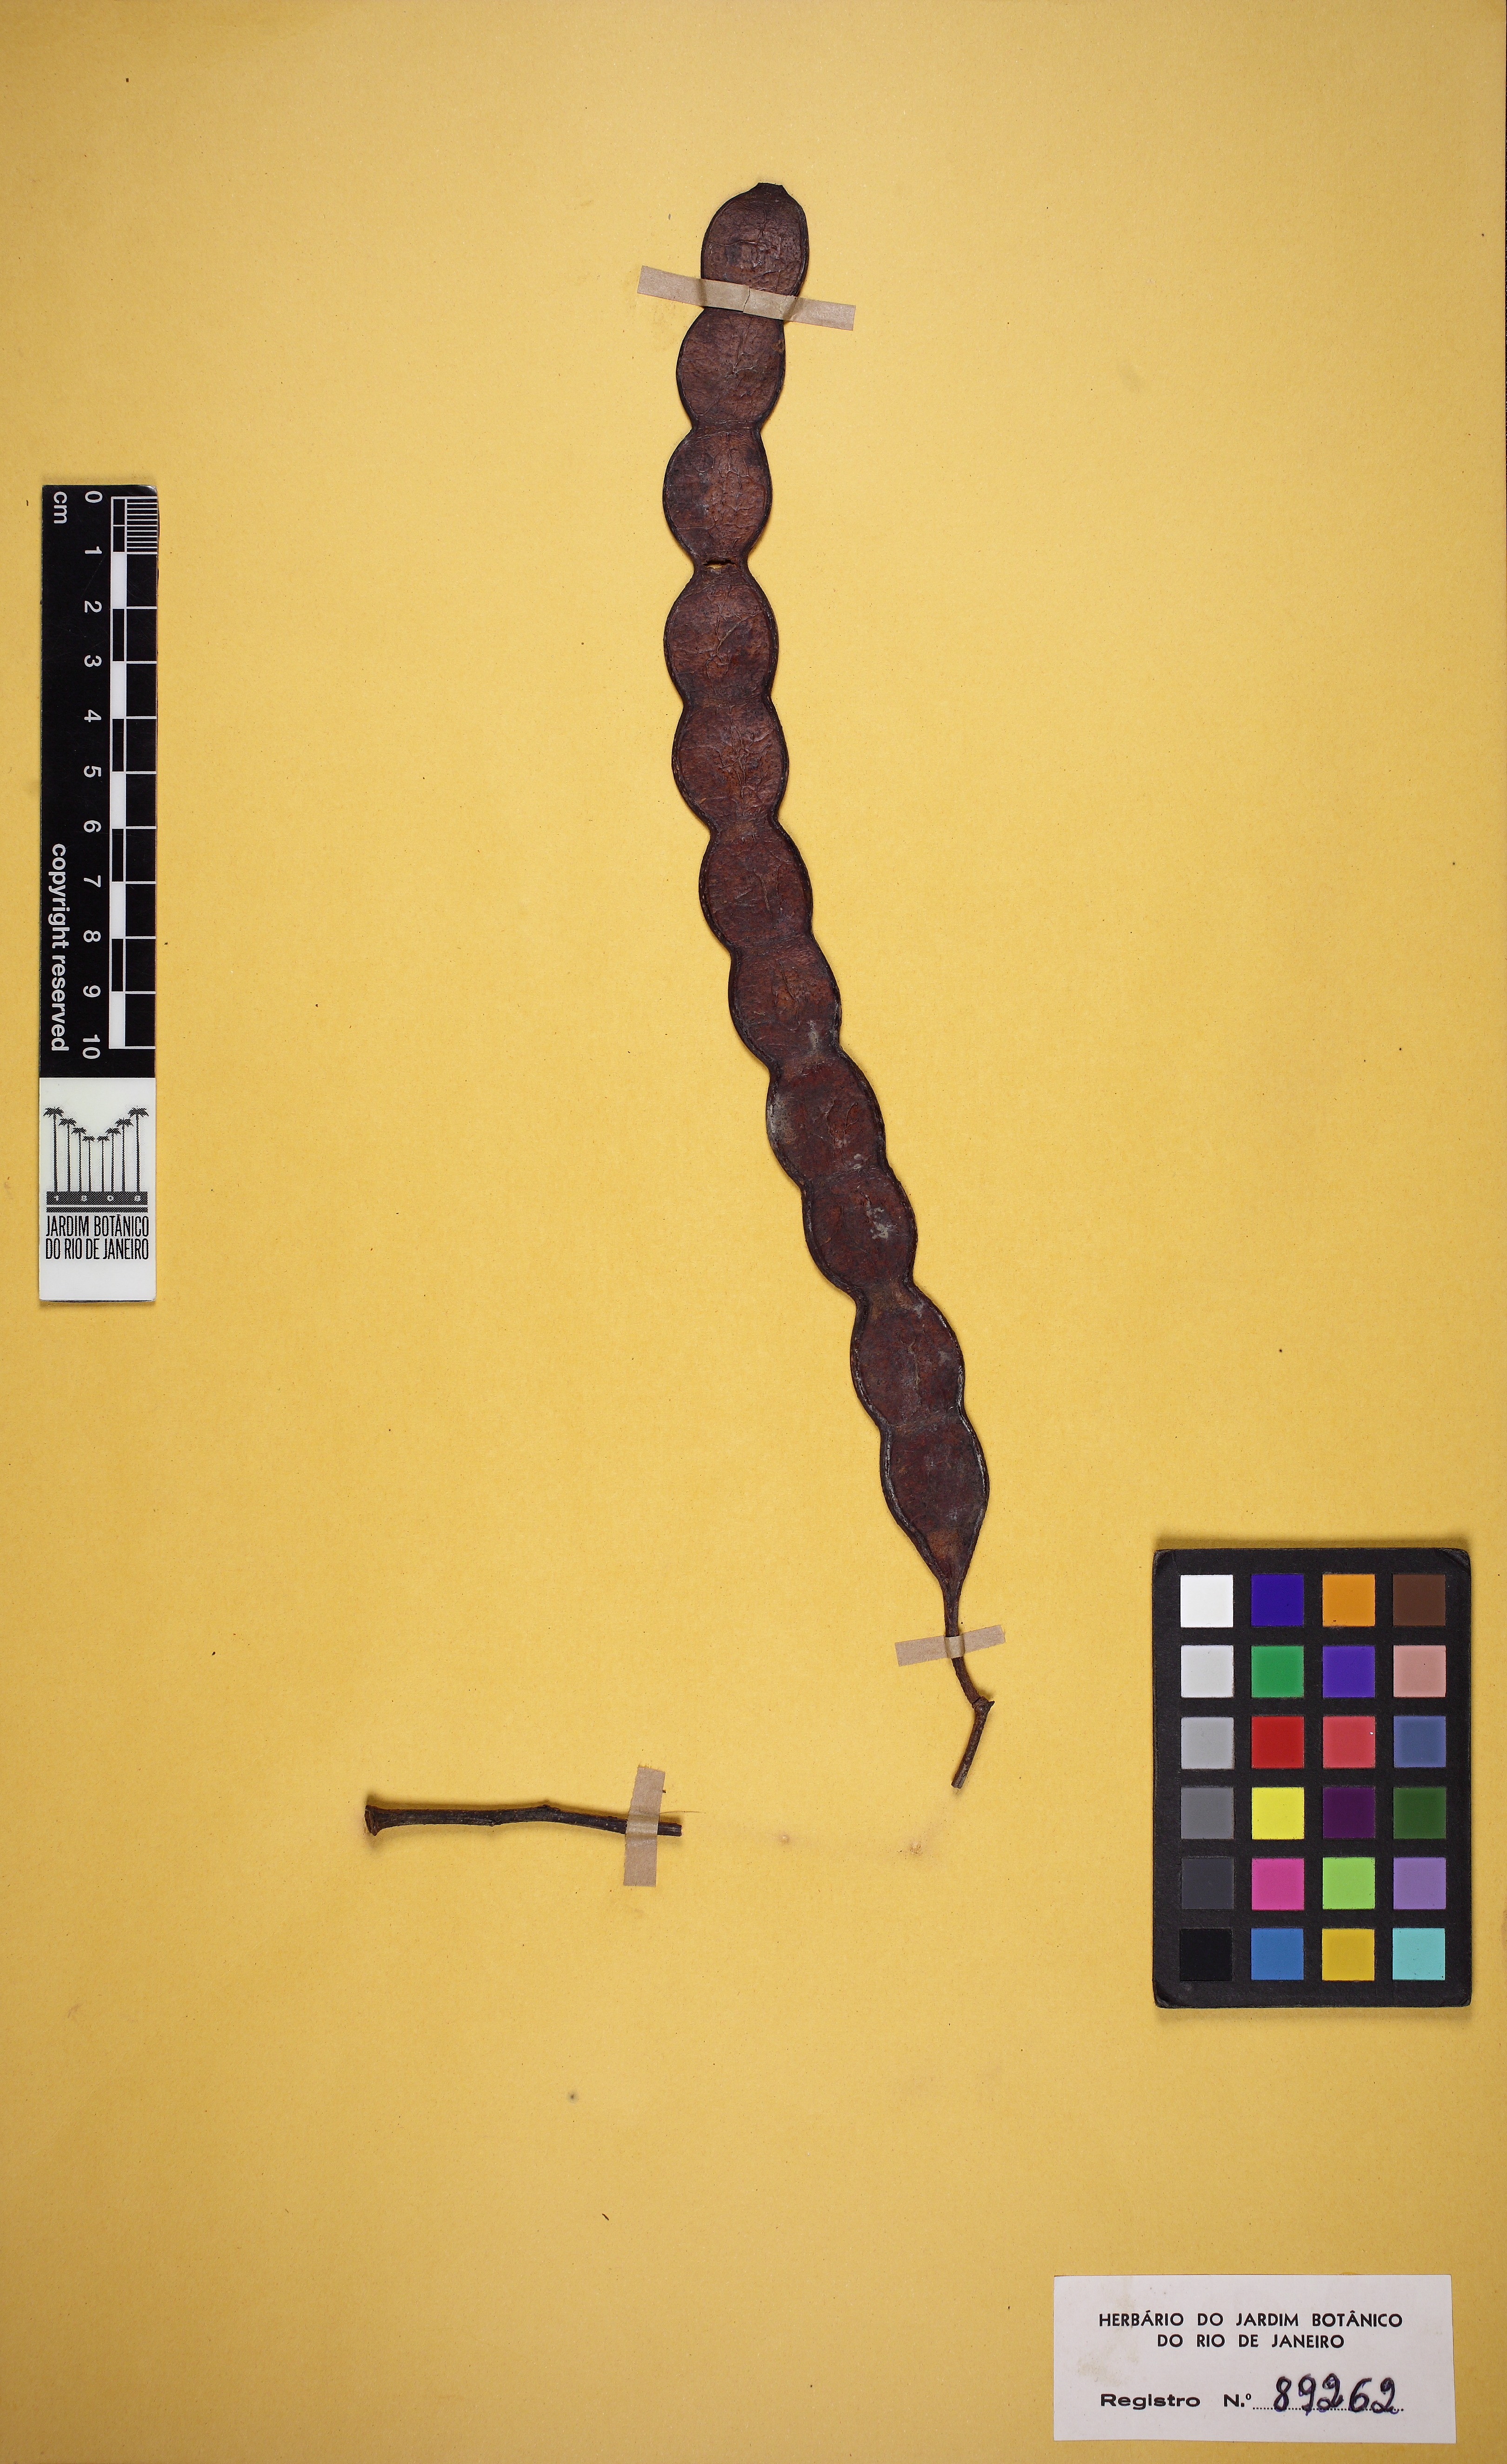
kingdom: Plantae
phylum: Tracheophyta
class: Magnoliopsida
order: Fabales
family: Fabaceae
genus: Anadenanthera
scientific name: Anadenanthera colubrina
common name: Curupay
